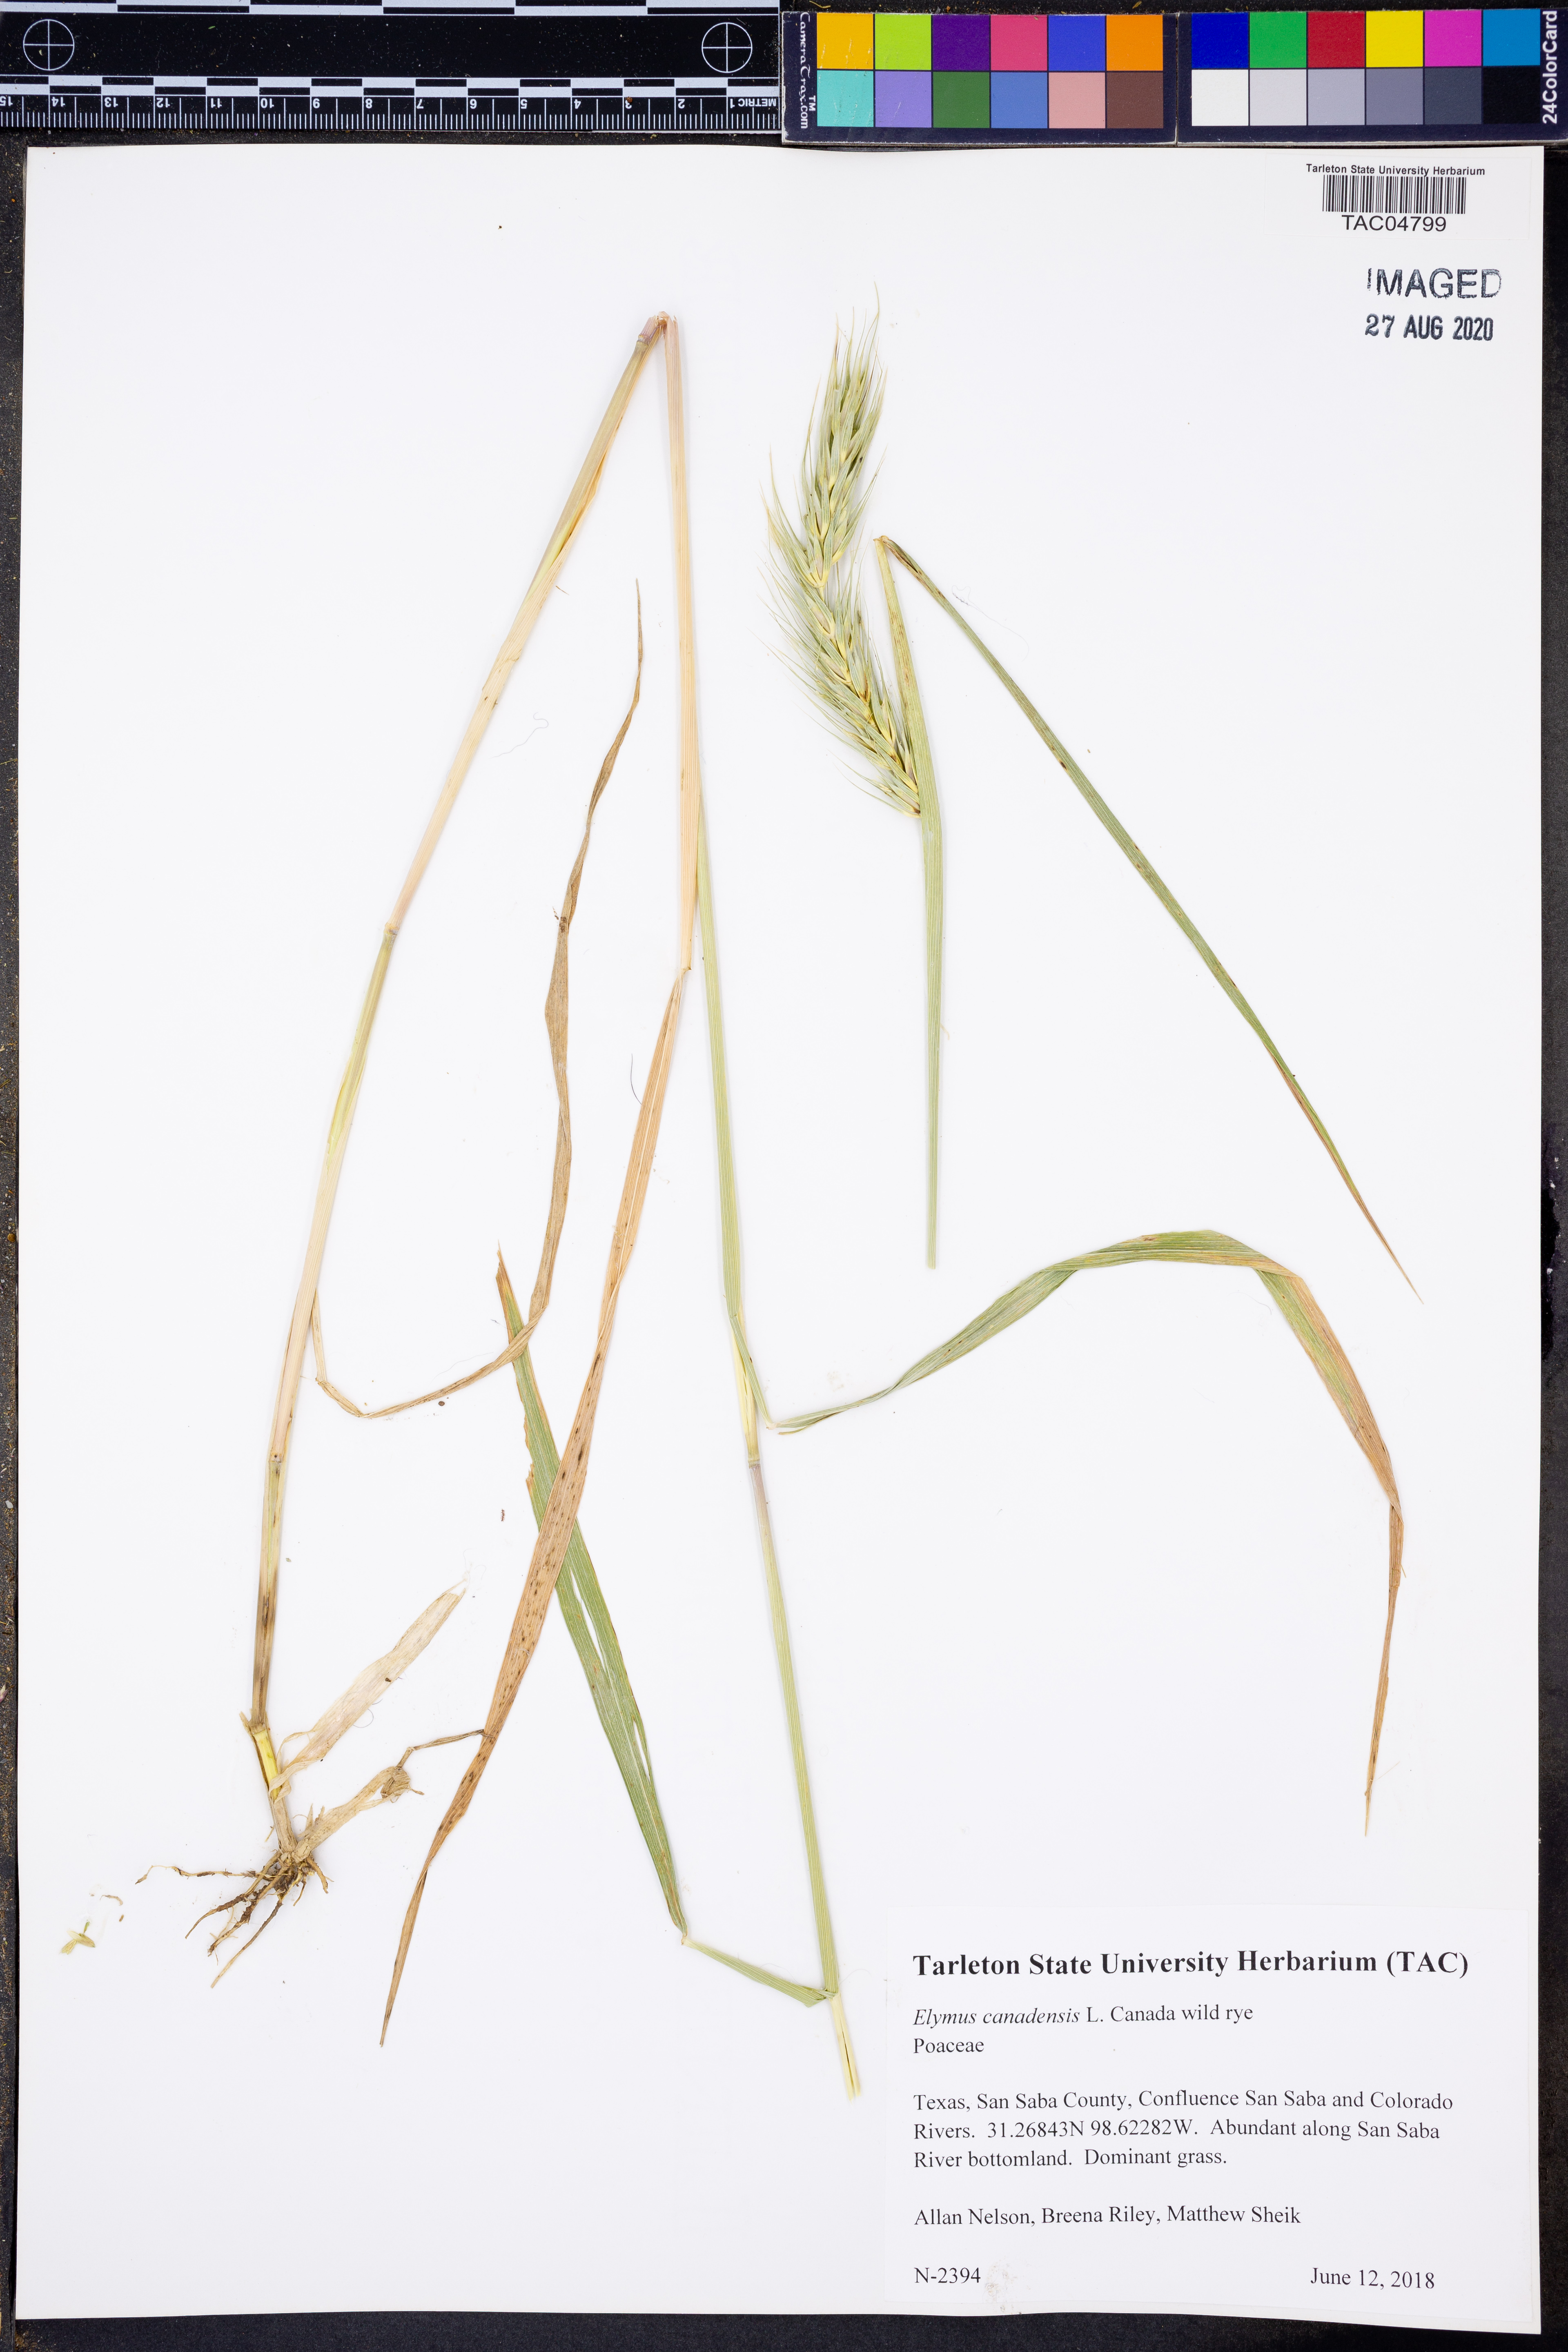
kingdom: Plantae
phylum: Tracheophyta
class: Liliopsida
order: Poales
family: Poaceae
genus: Elymus
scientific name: Elymus canadensis
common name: Canada wild rye
